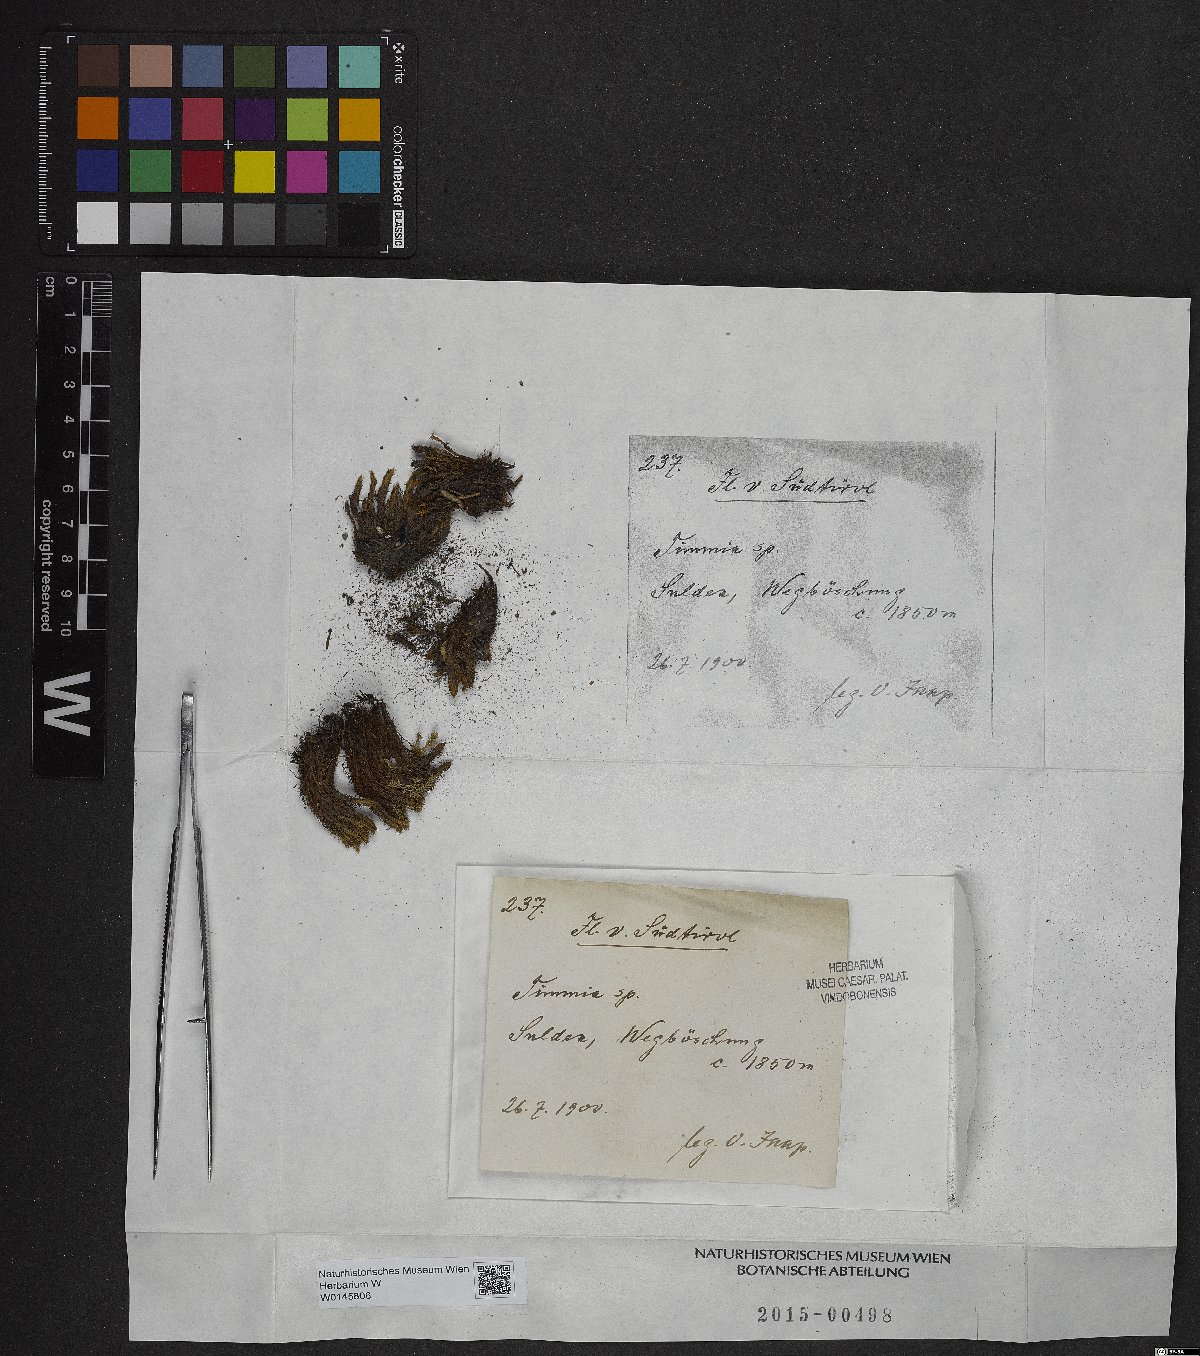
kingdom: Plantae
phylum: Bryophyta
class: Bryopsida
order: Timmiales
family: Timmiaceae
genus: Timmia
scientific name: Timmia
